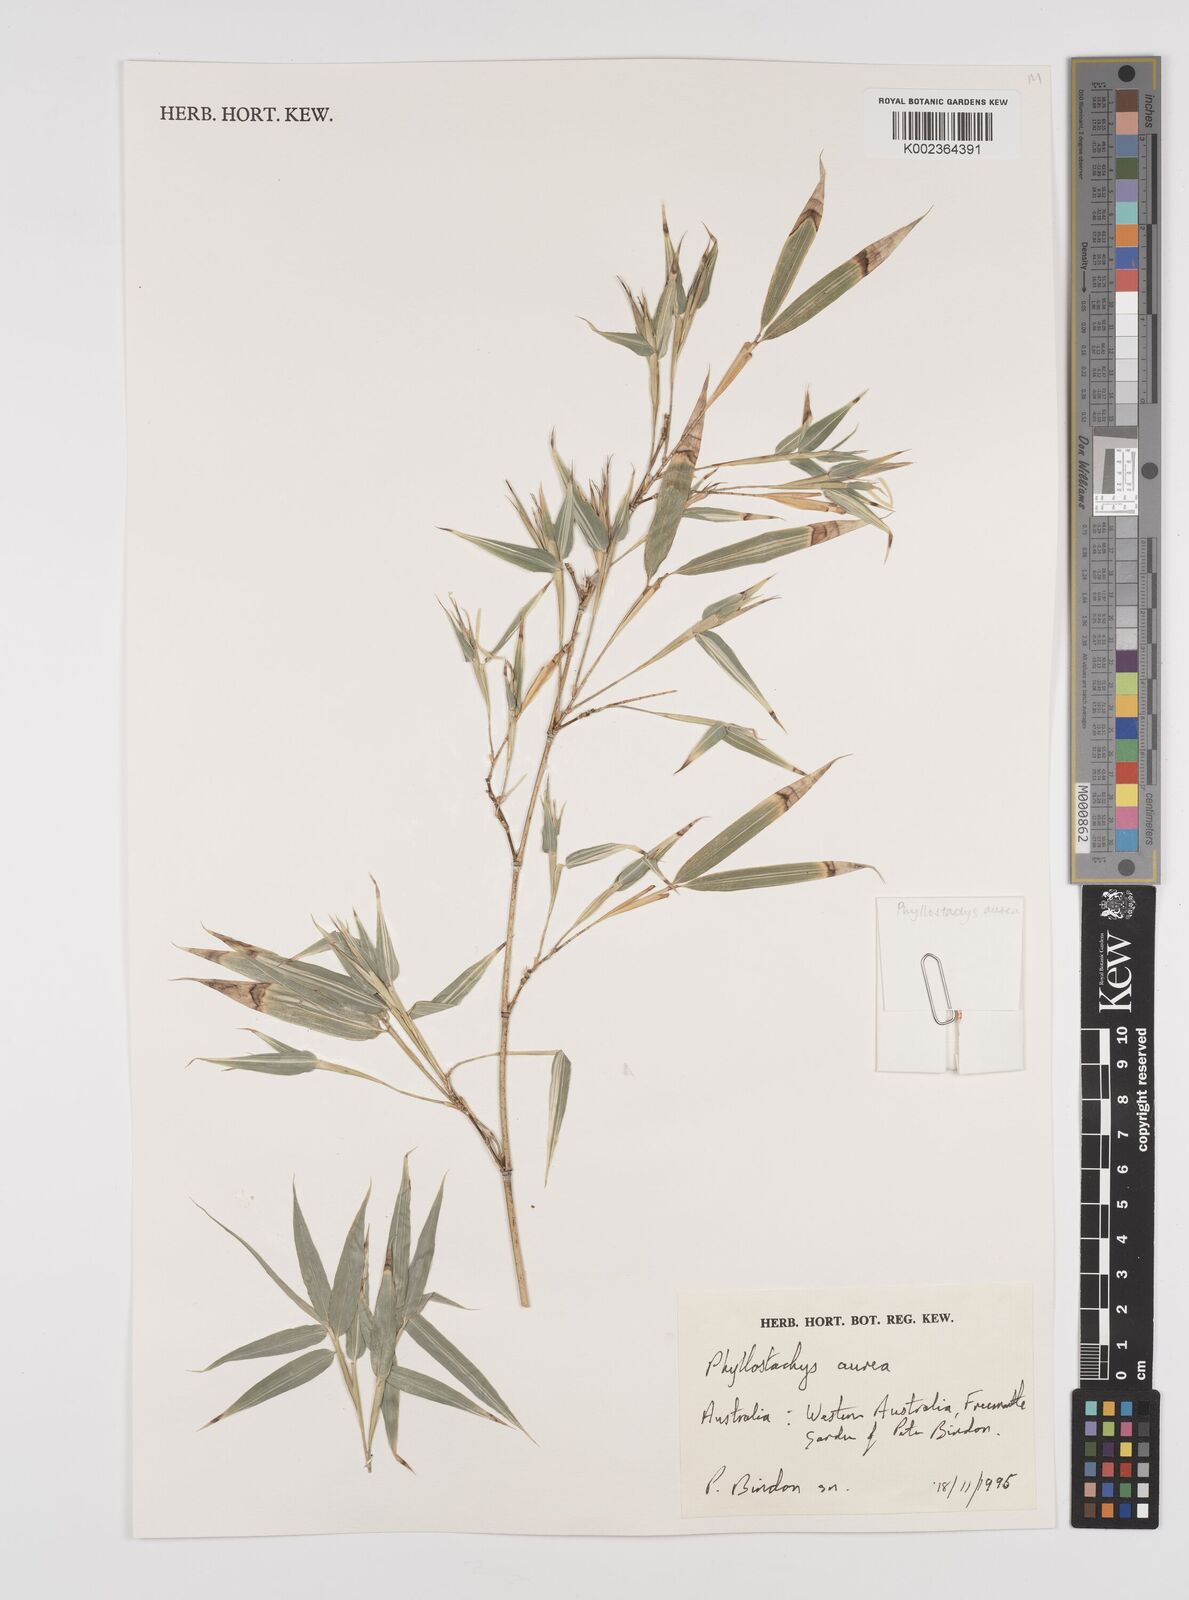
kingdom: Plantae
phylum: Tracheophyta
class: Liliopsida
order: Poales
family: Poaceae
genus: Phyllostachys
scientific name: Phyllostachys aurea
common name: Golden bamboo
